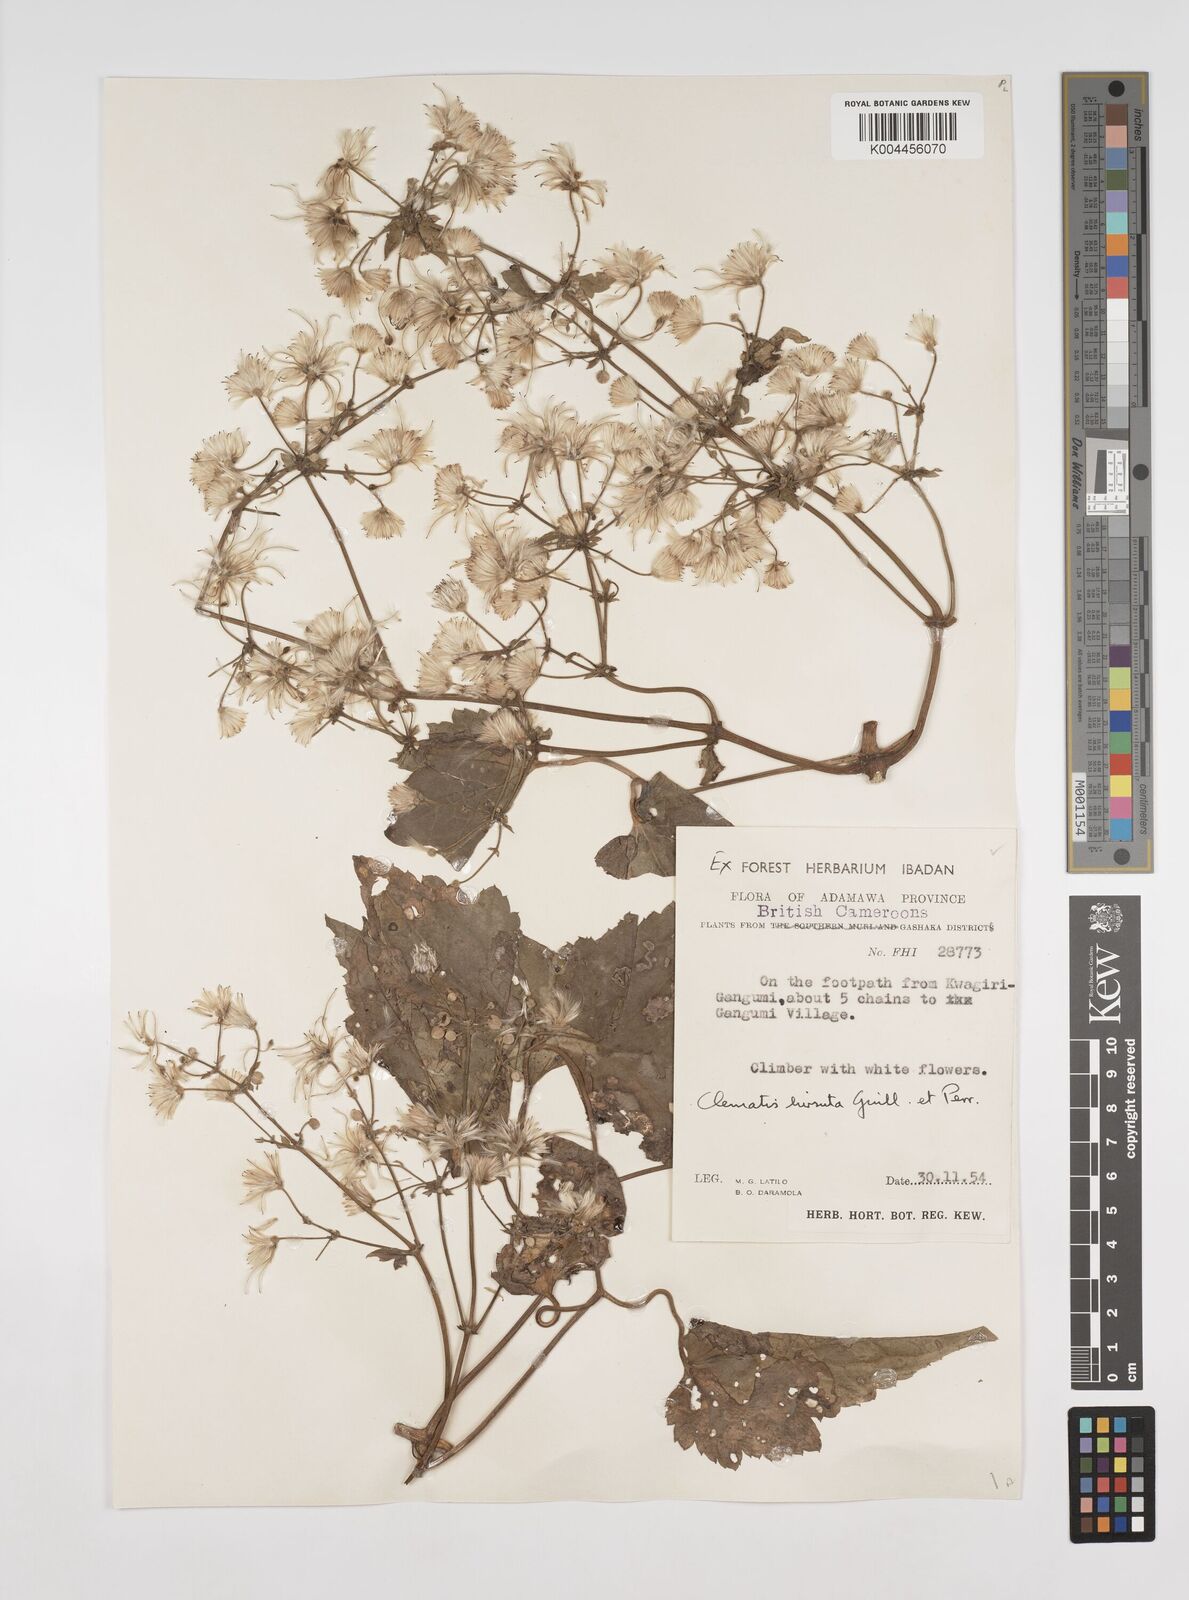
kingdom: Plantae
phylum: Tracheophyta
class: Magnoliopsida
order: Ranunculales
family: Ranunculaceae
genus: Clematis
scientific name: Clematis hirsuta
